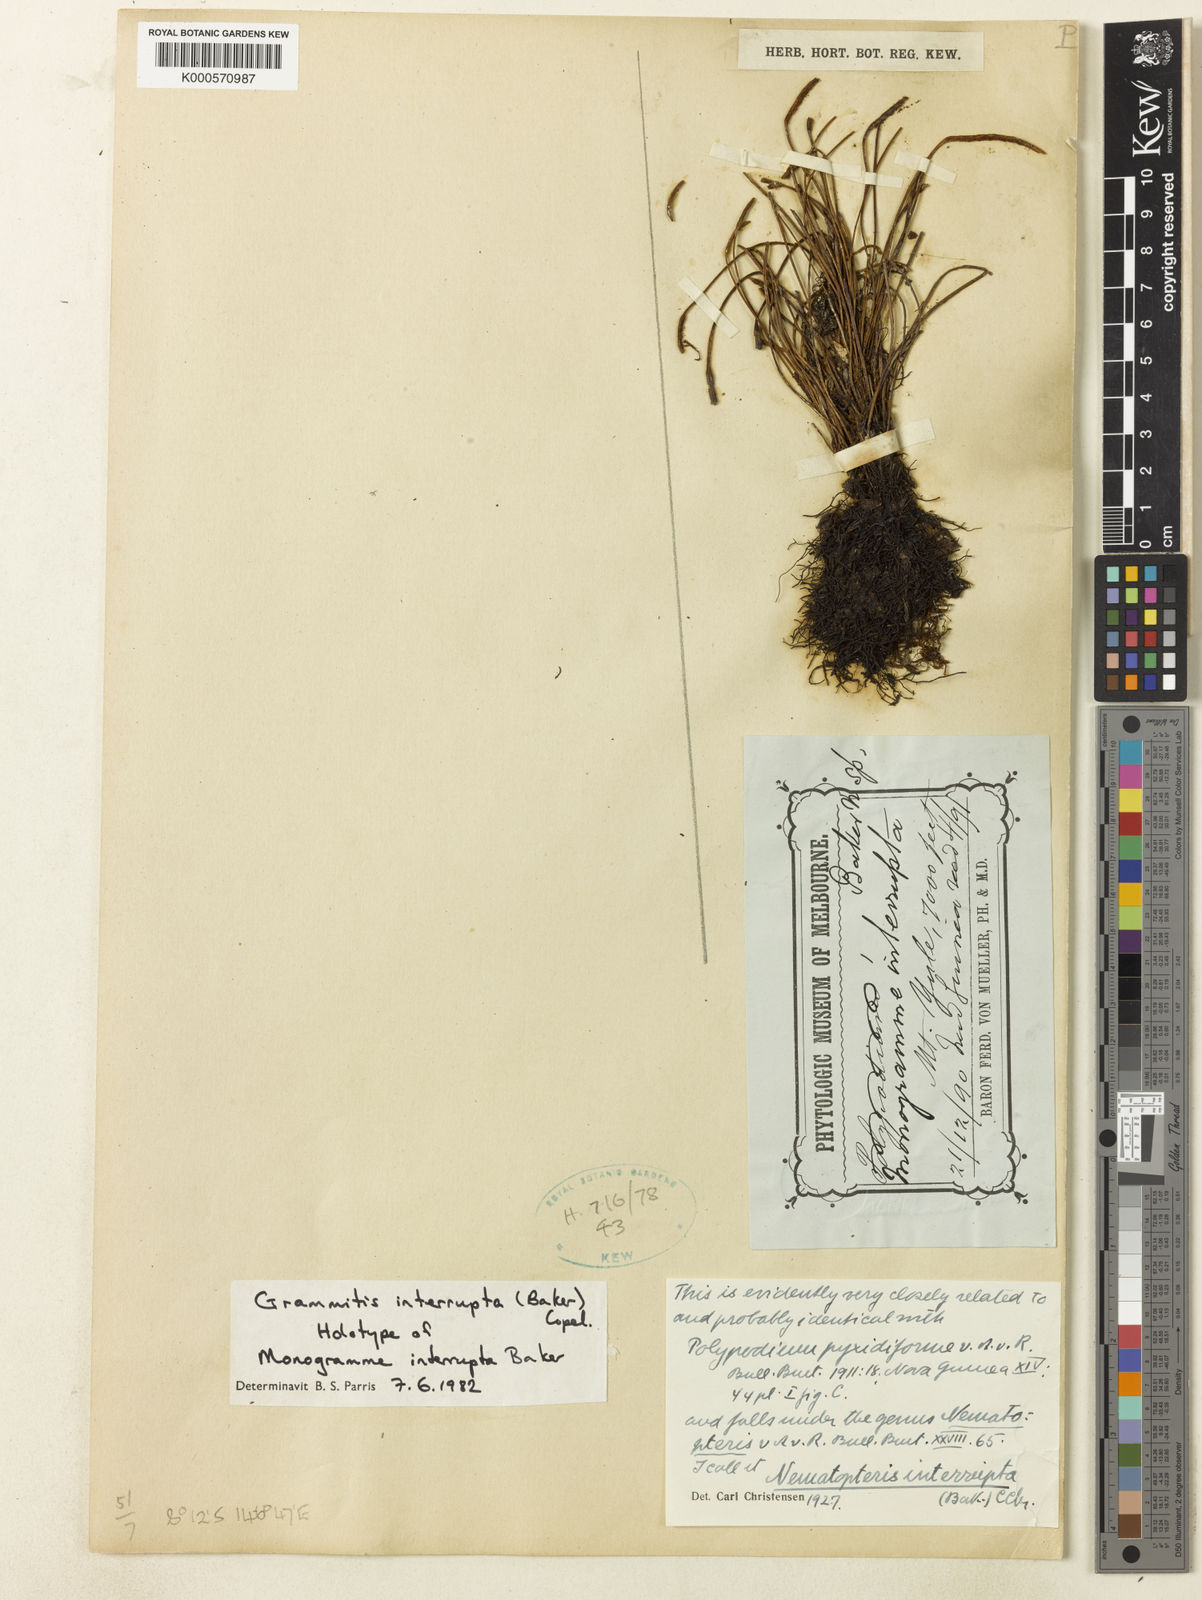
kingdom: Plantae
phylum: Tracheophyta
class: Polypodiopsida
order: Polypodiales
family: Polypodiaceae
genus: Oreogrammitis
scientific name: Oreogrammitis interrupta
